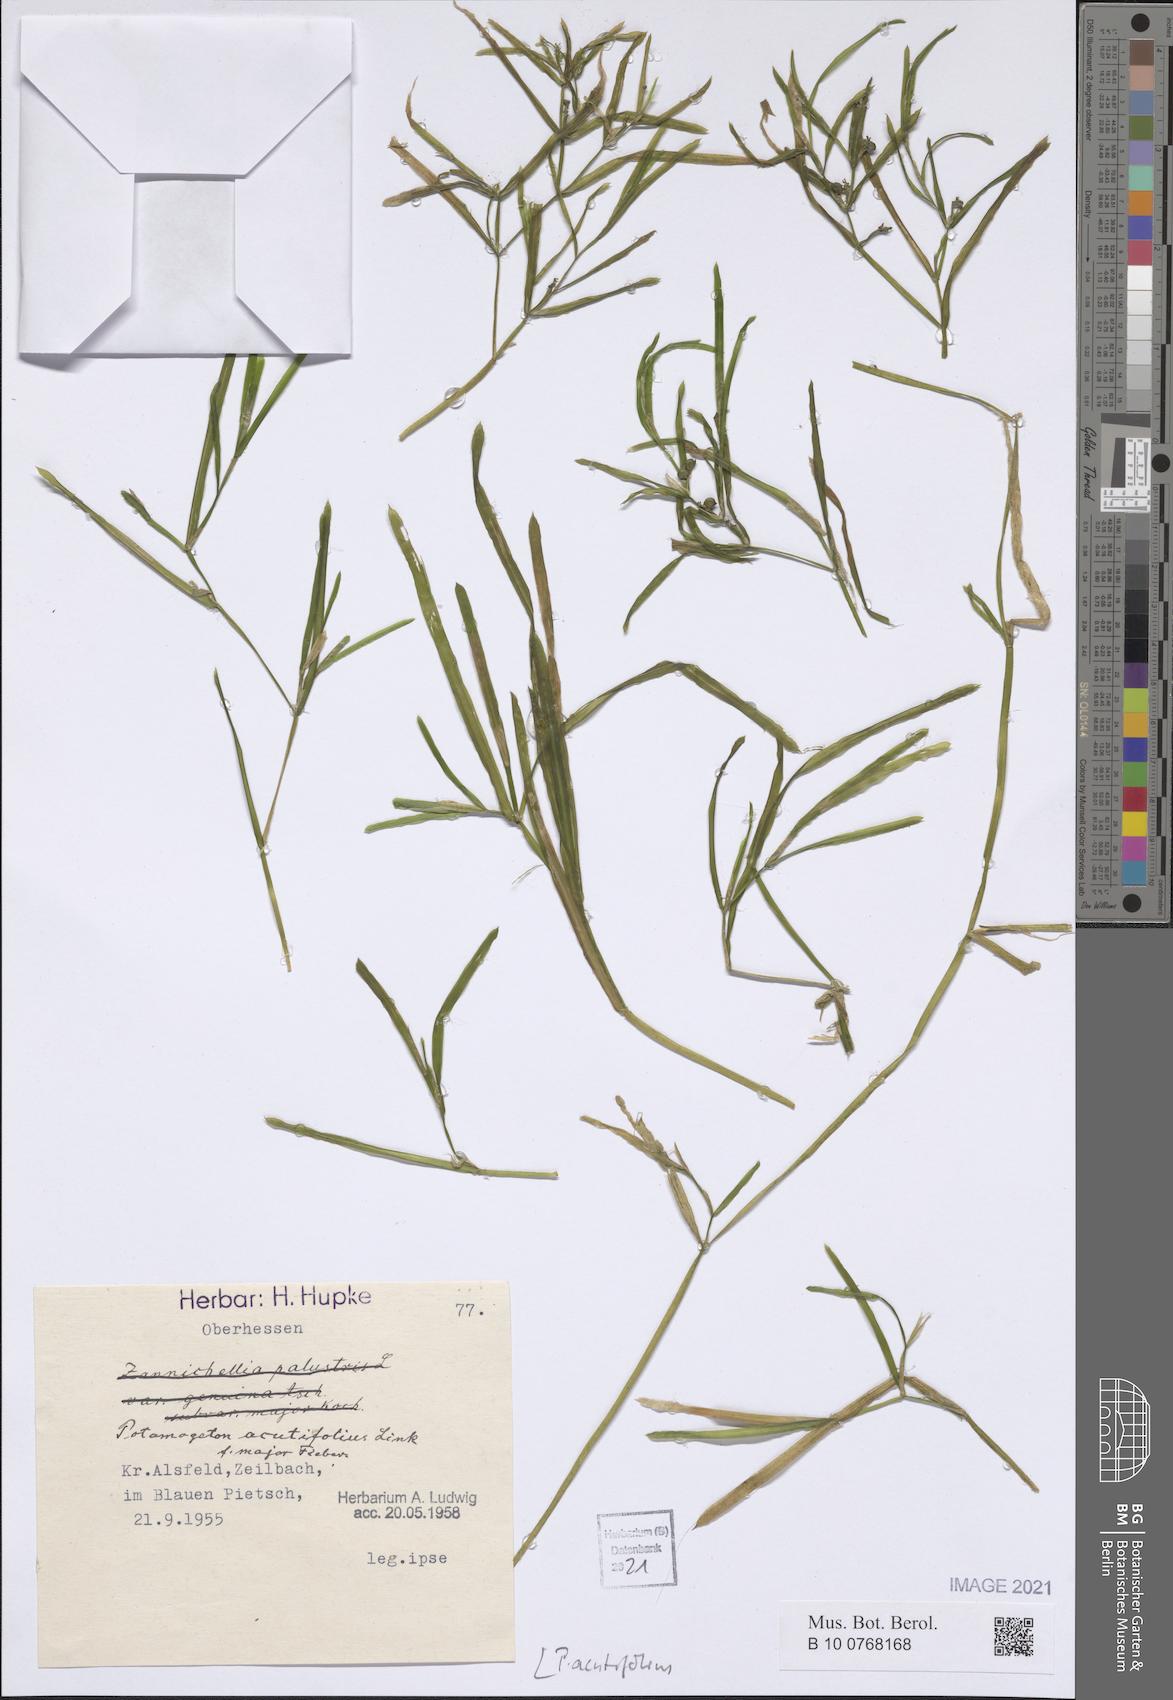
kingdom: Plantae
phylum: Tracheophyta
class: Liliopsida
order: Alismatales
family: Potamogetonaceae
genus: Potamogeton
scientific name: Potamogeton acutifolius
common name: Sharp-leaved pondweed
